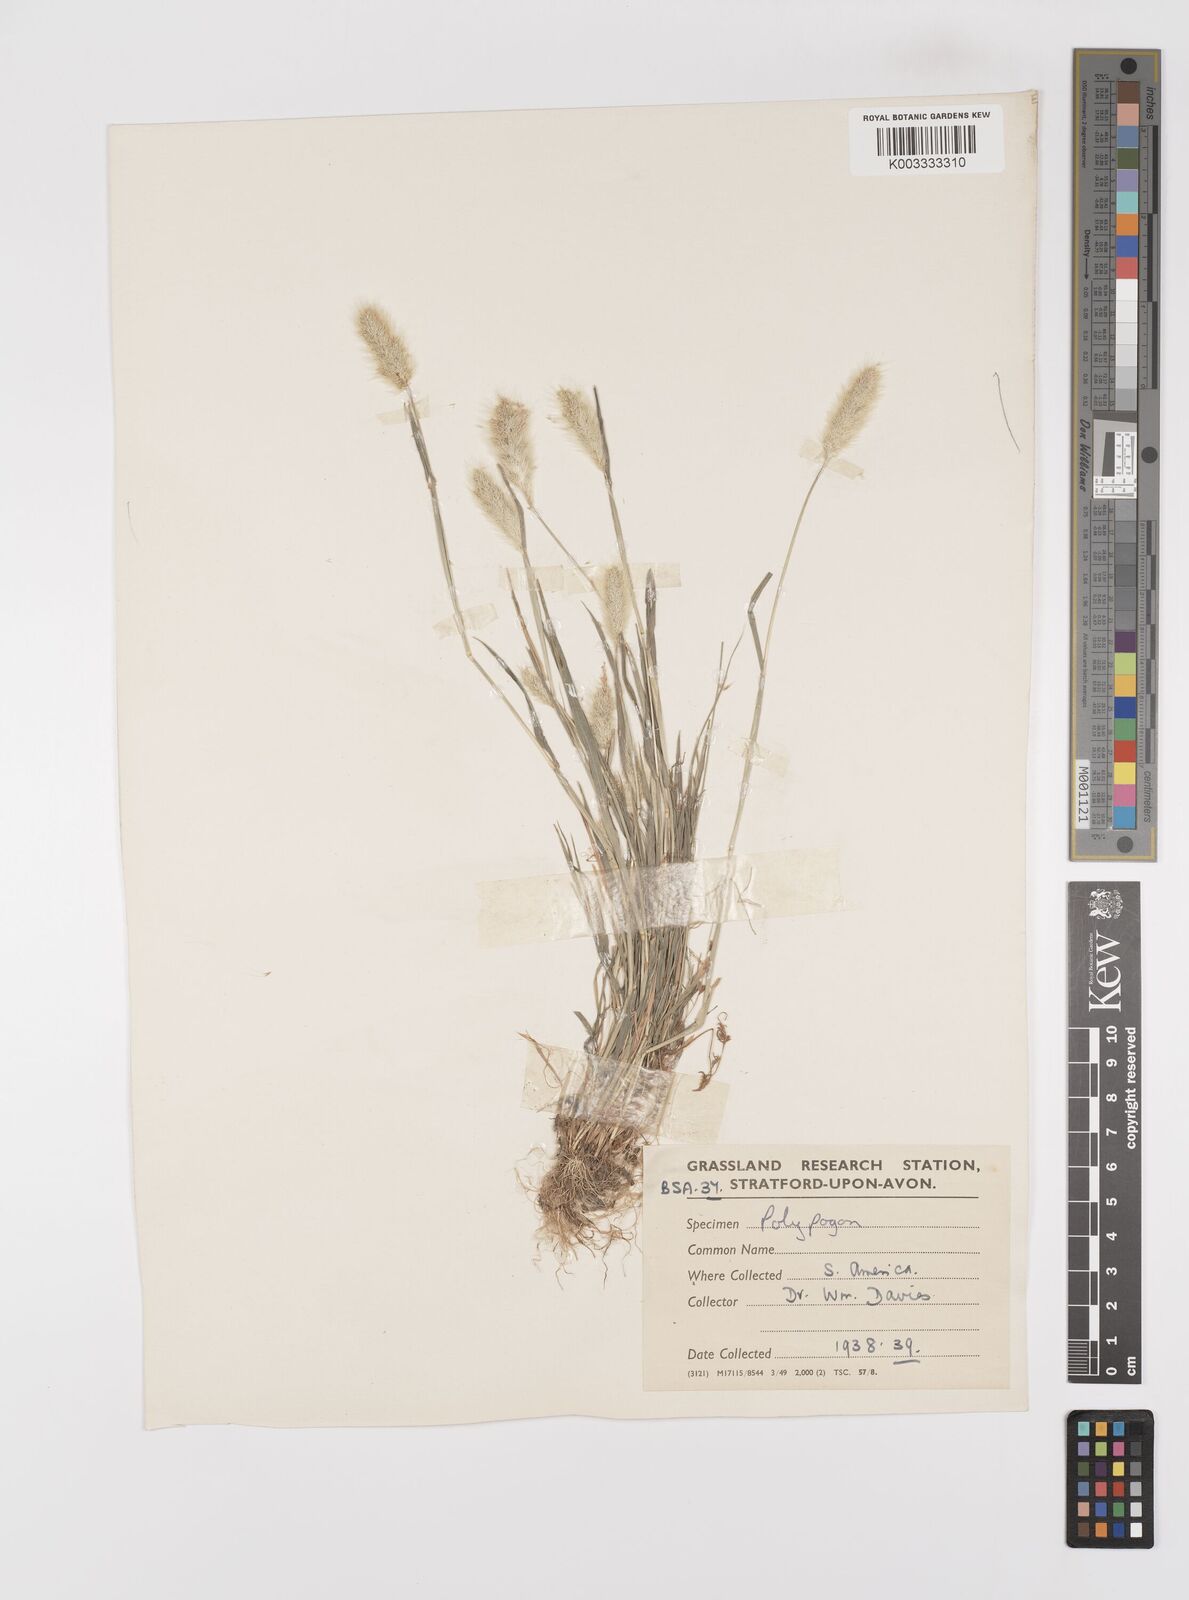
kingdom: Plantae
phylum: Tracheophyta
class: Liliopsida
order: Poales
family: Poaceae
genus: Polypogon
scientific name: Polypogon monspeliensis
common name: Annual rabbitsfoot grass
